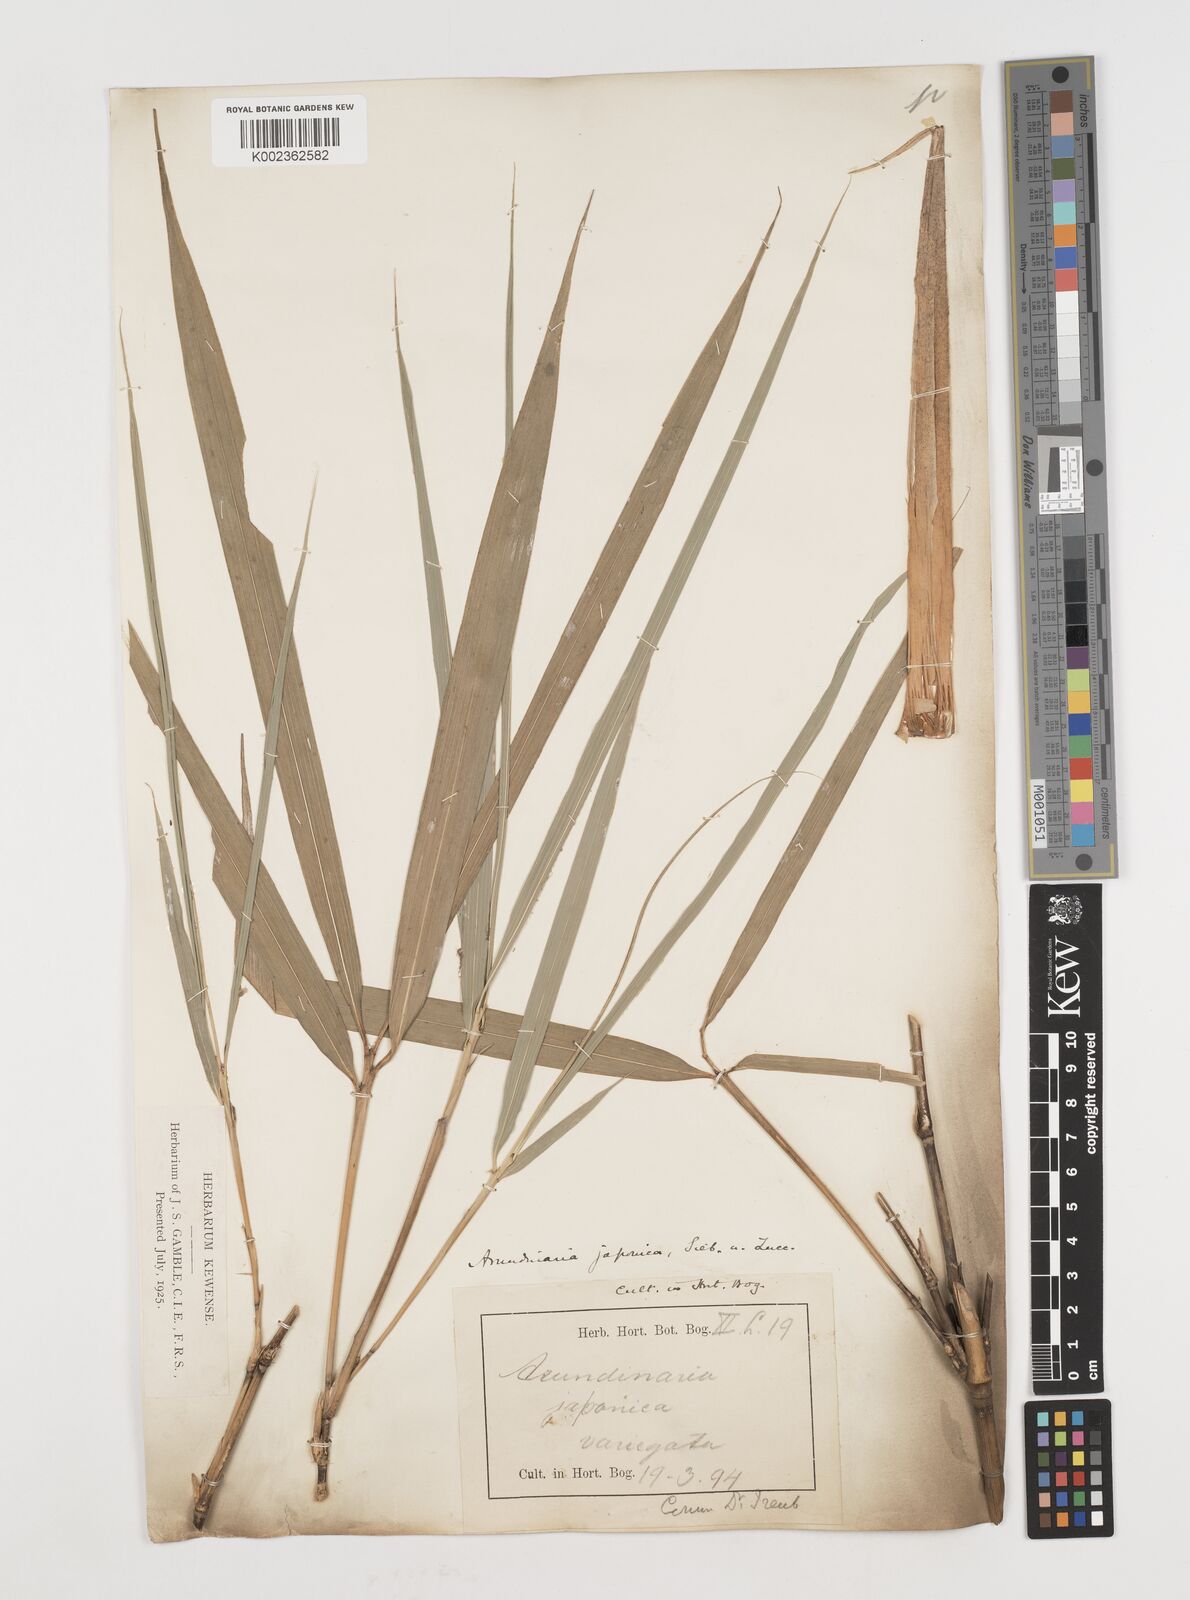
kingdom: Plantae
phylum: Tracheophyta
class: Liliopsida
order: Poales
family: Poaceae
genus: Pseudosasa
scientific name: Pseudosasa japonica
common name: Arrow bamboo
